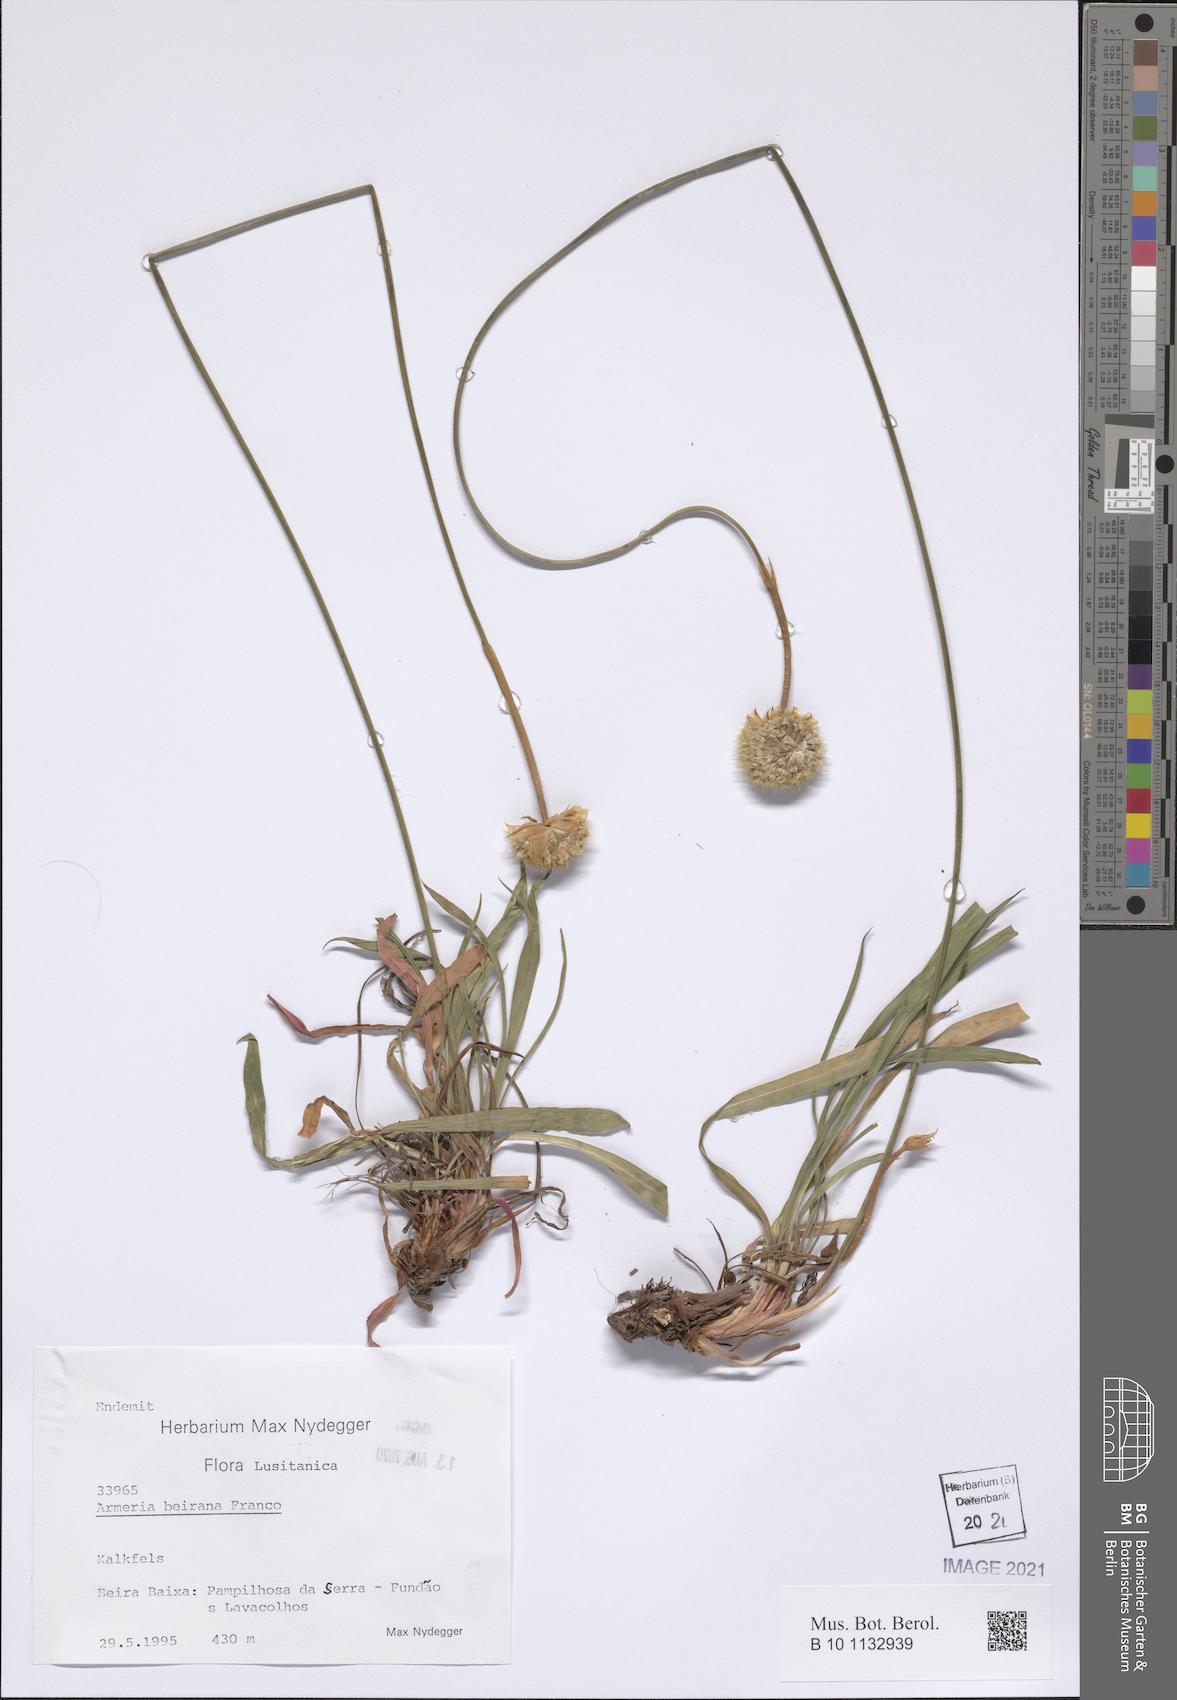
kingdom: Plantae
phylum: Tracheophyta
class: Magnoliopsida
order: Caryophyllales
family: Plumbaginaceae
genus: Armeria
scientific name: Armeria beirana
